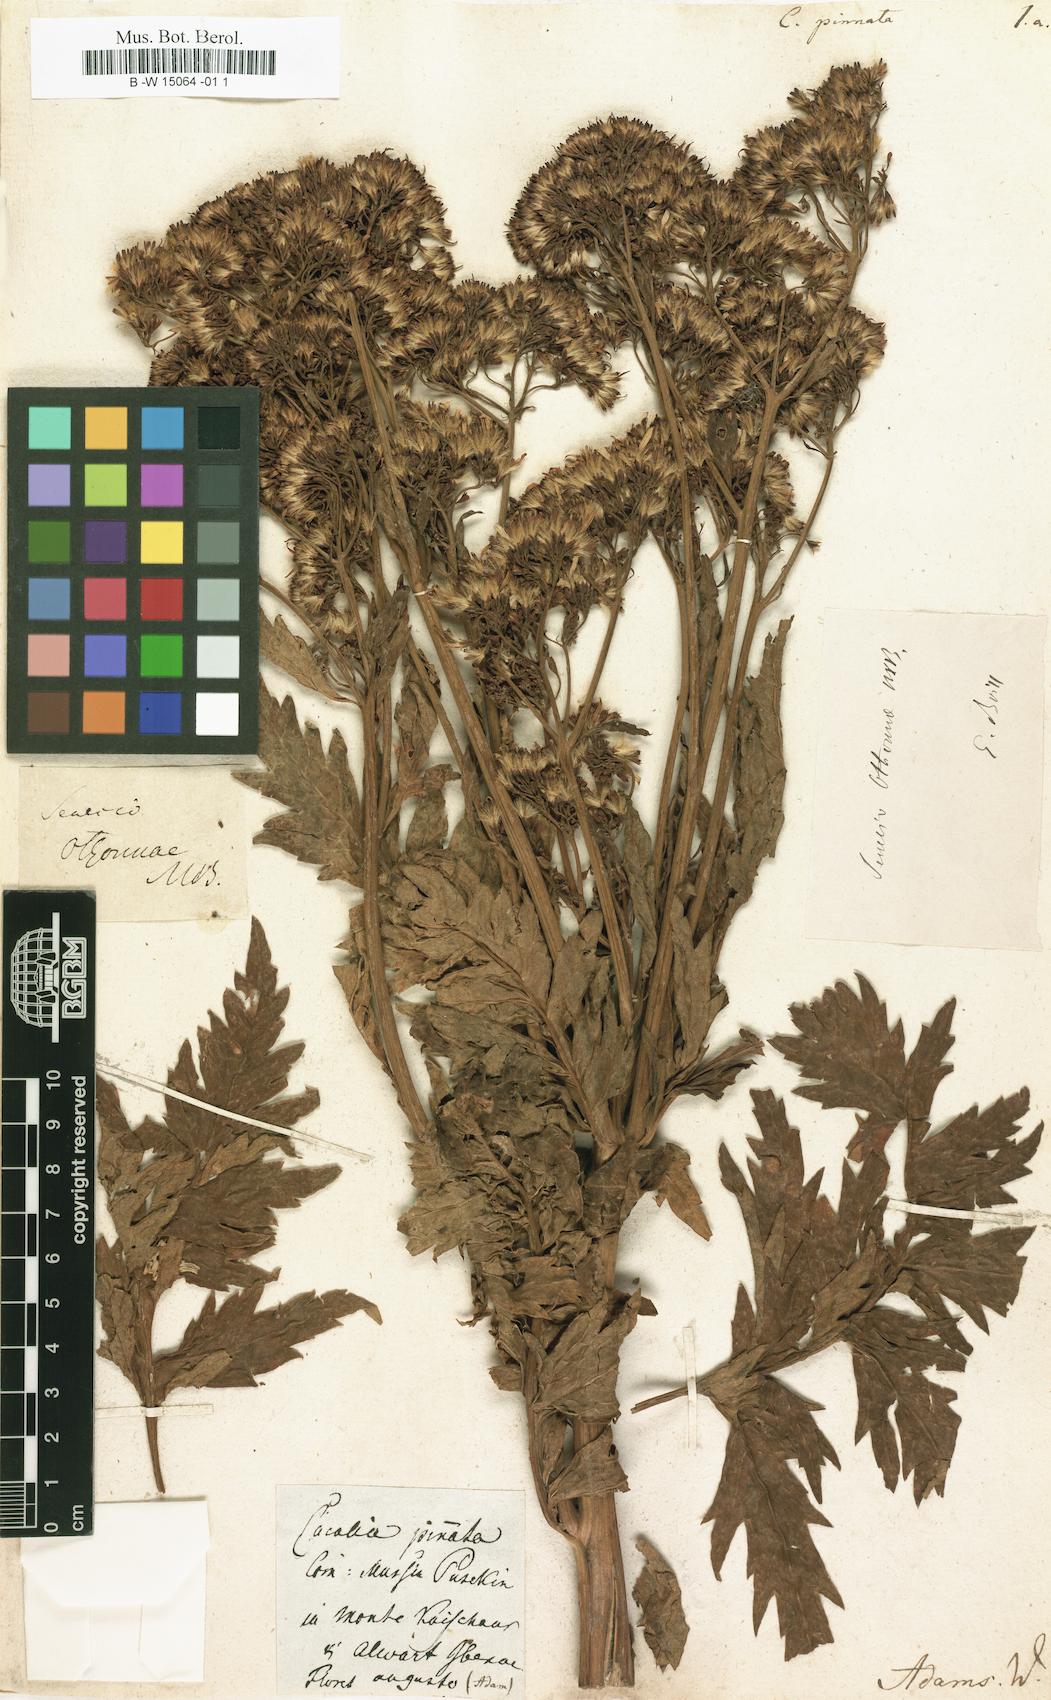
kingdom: Plantae
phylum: Tracheophyta
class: Magnoliopsida
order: Asterales
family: Asteraceae
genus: Jacobaea
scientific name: Jacobaea othonnae
